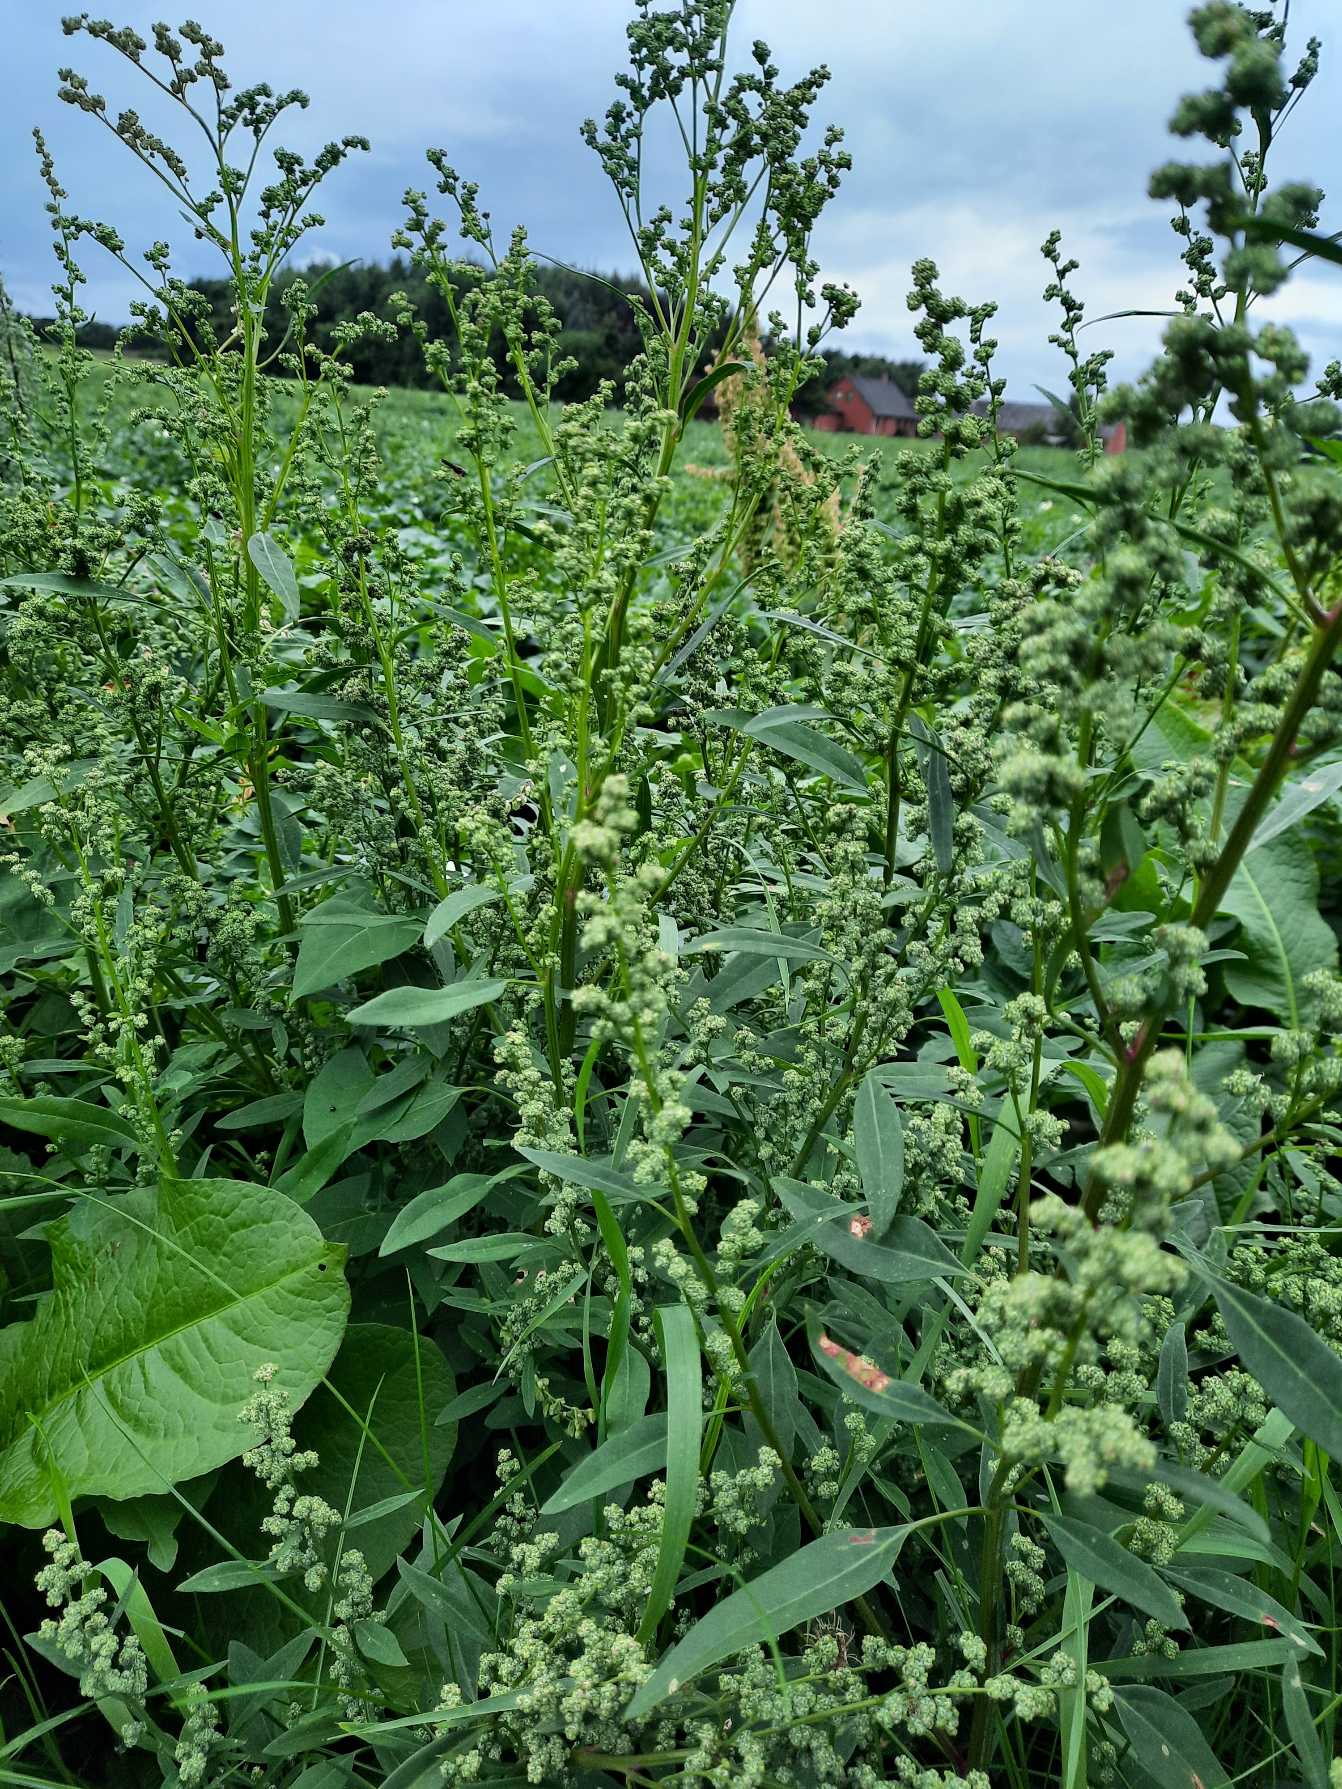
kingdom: Plantae
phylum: Tracheophyta
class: Magnoliopsida
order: Caryophyllales
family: Amaranthaceae
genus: Chenopodium
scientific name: Chenopodium pratericola
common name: Finbladet gåsefod
